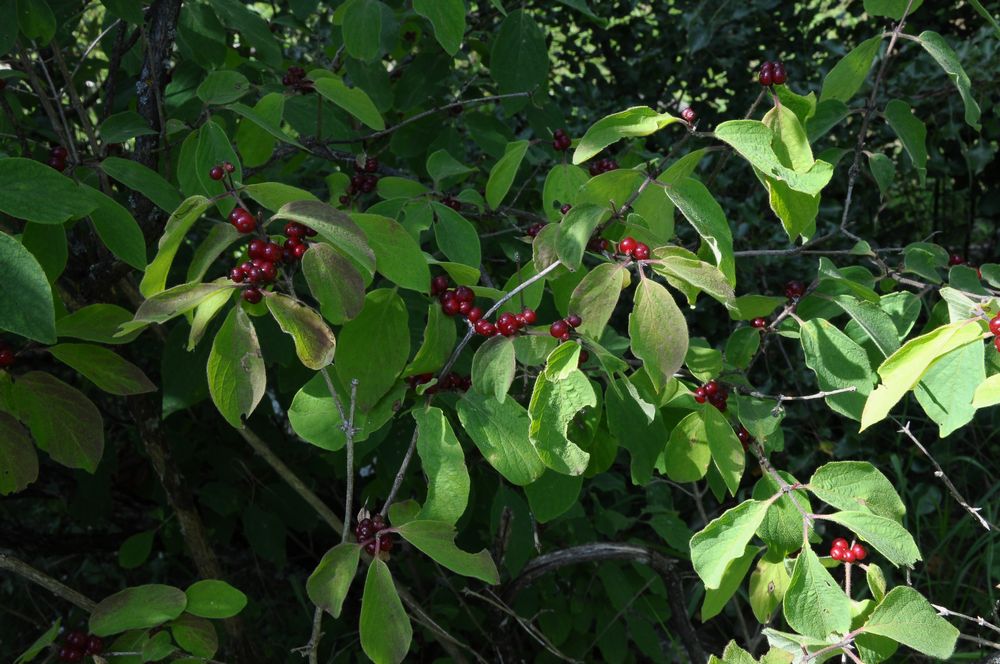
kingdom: Plantae
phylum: Tracheophyta
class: Magnoliopsida
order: Dipsacales
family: Caprifoliaceae
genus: Lonicera
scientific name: Lonicera xylosteum
